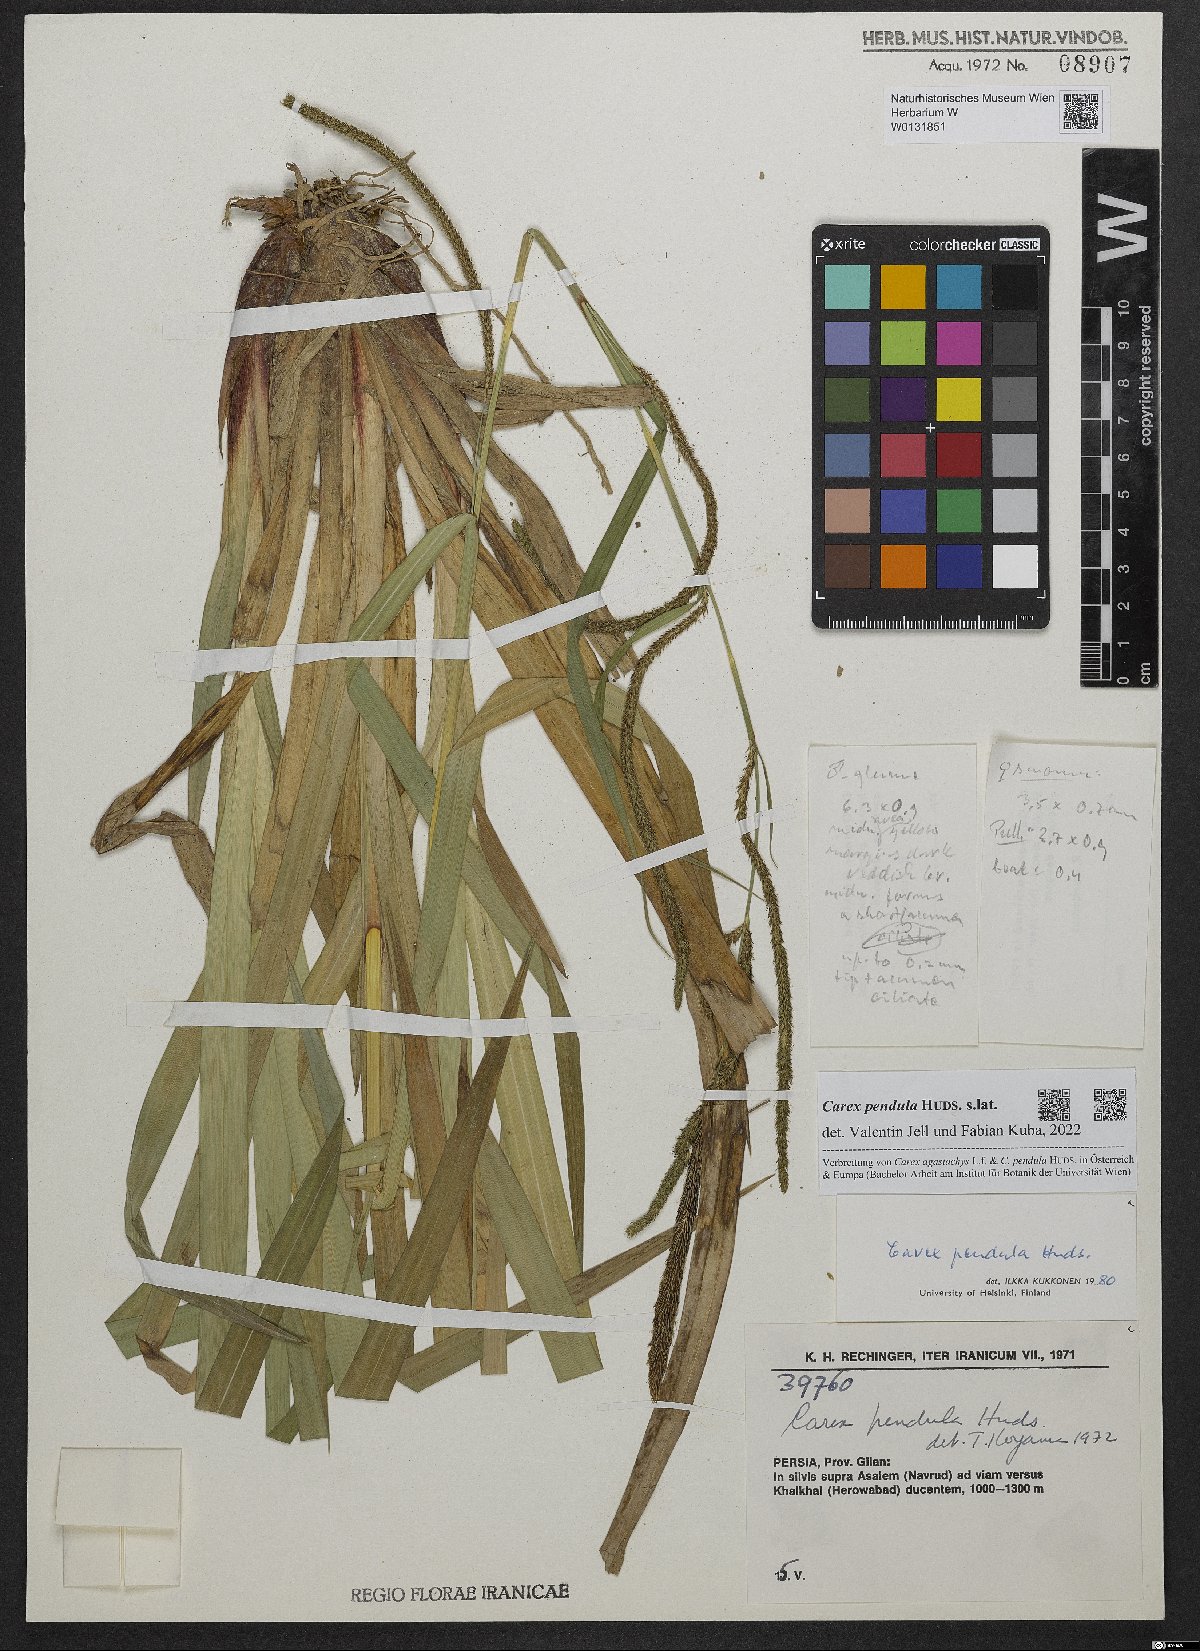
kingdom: Plantae
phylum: Tracheophyta
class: Liliopsida
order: Poales
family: Cyperaceae
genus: Carex
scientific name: Carex pendula
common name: Pendulous sedge
